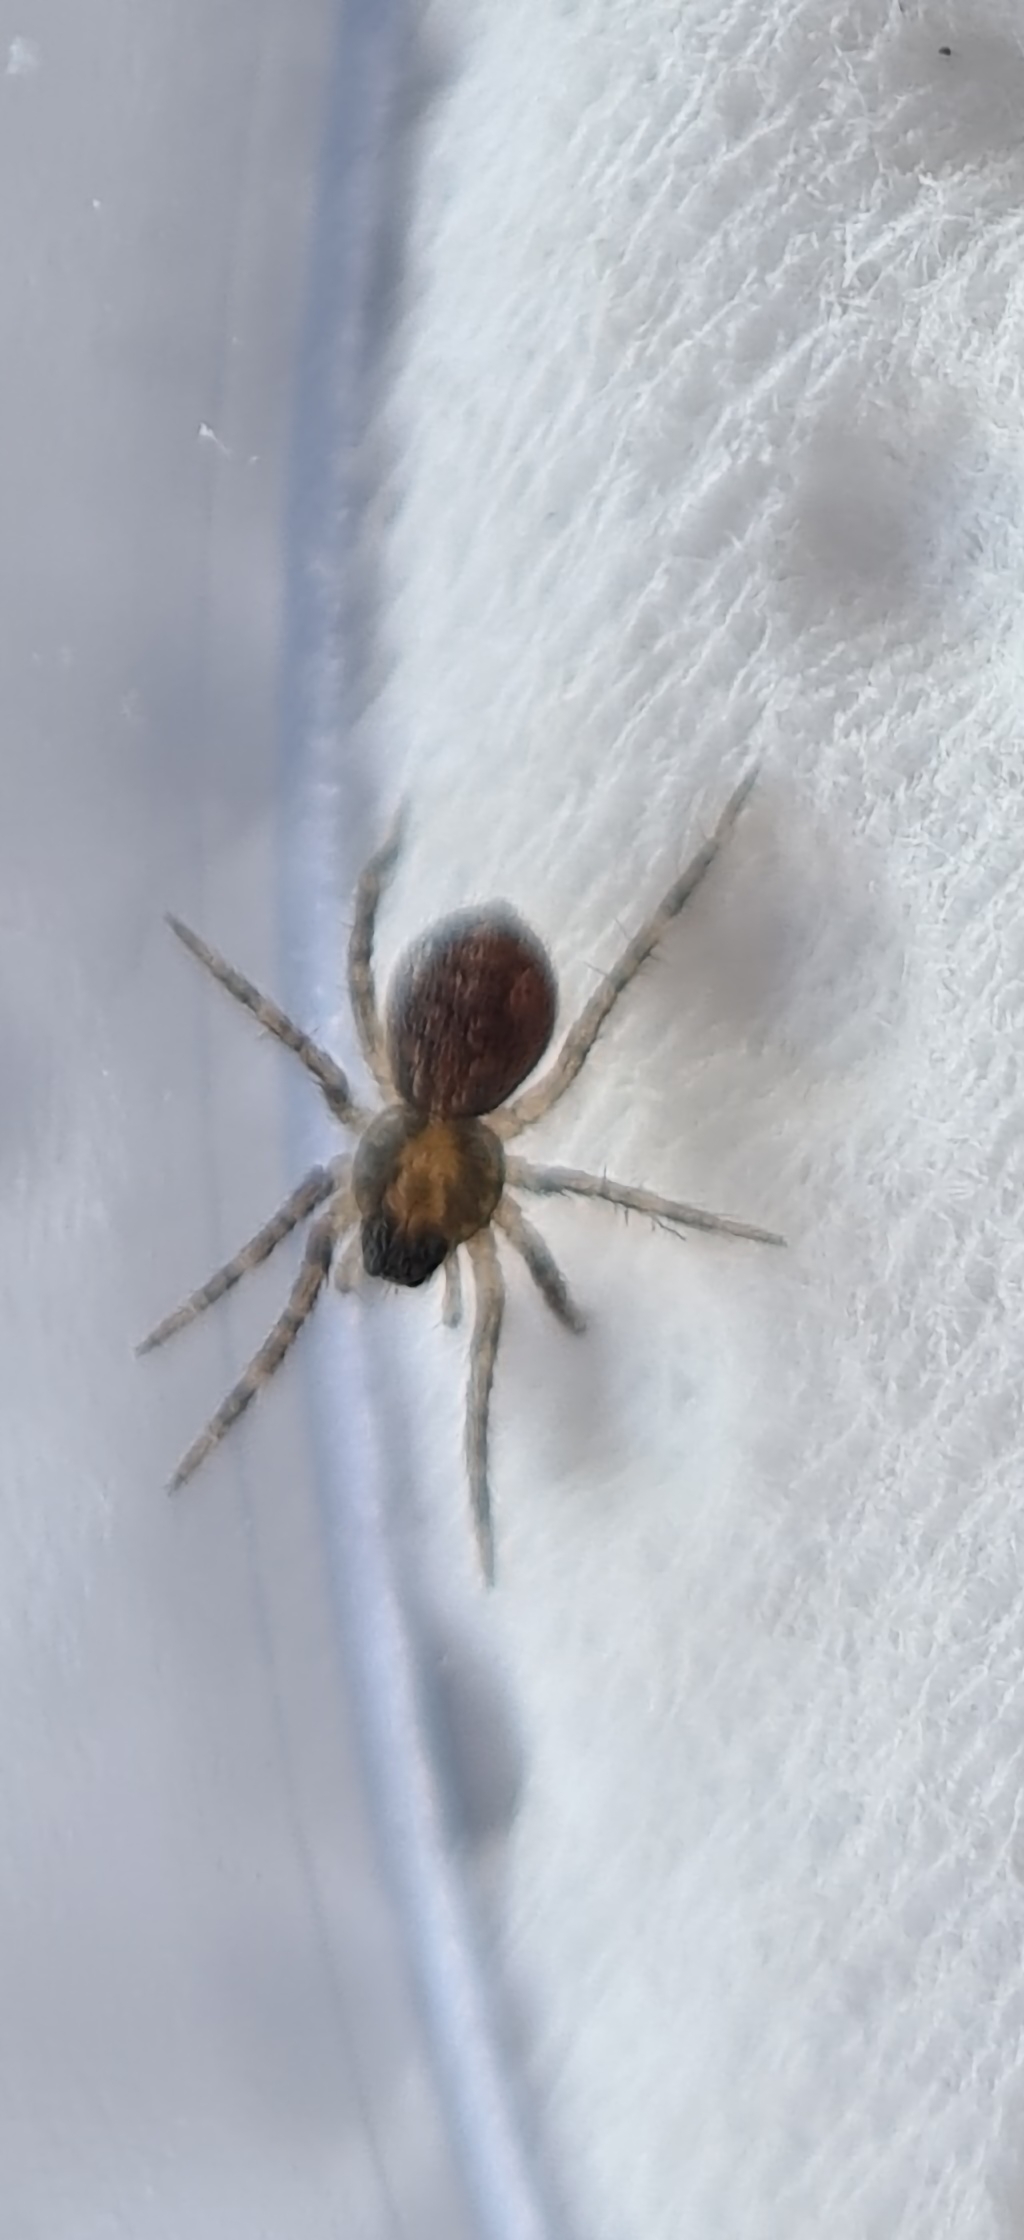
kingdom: Animalia
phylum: Arthropoda
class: Arachnida
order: Araneae
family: Lycosidae
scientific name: Lycosidae
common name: Jagtedderkopper
